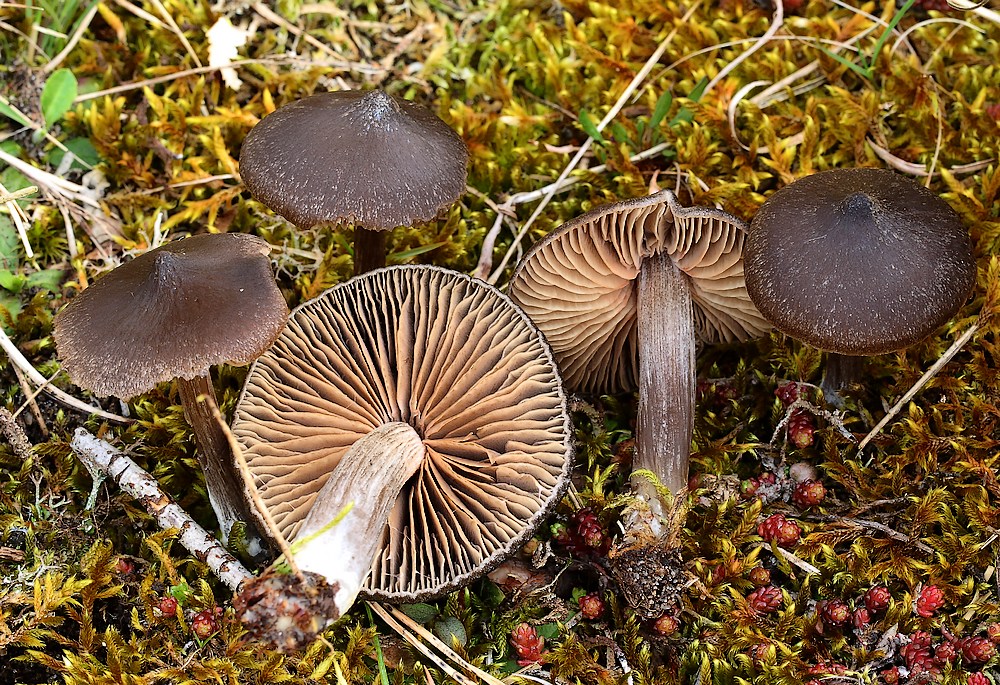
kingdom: Fungi
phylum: Basidiomycota
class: Agaricomycetes
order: Agaricales
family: Entolomataceae
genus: Entoloma
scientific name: Entoloma vernum
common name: vår-rødblad
